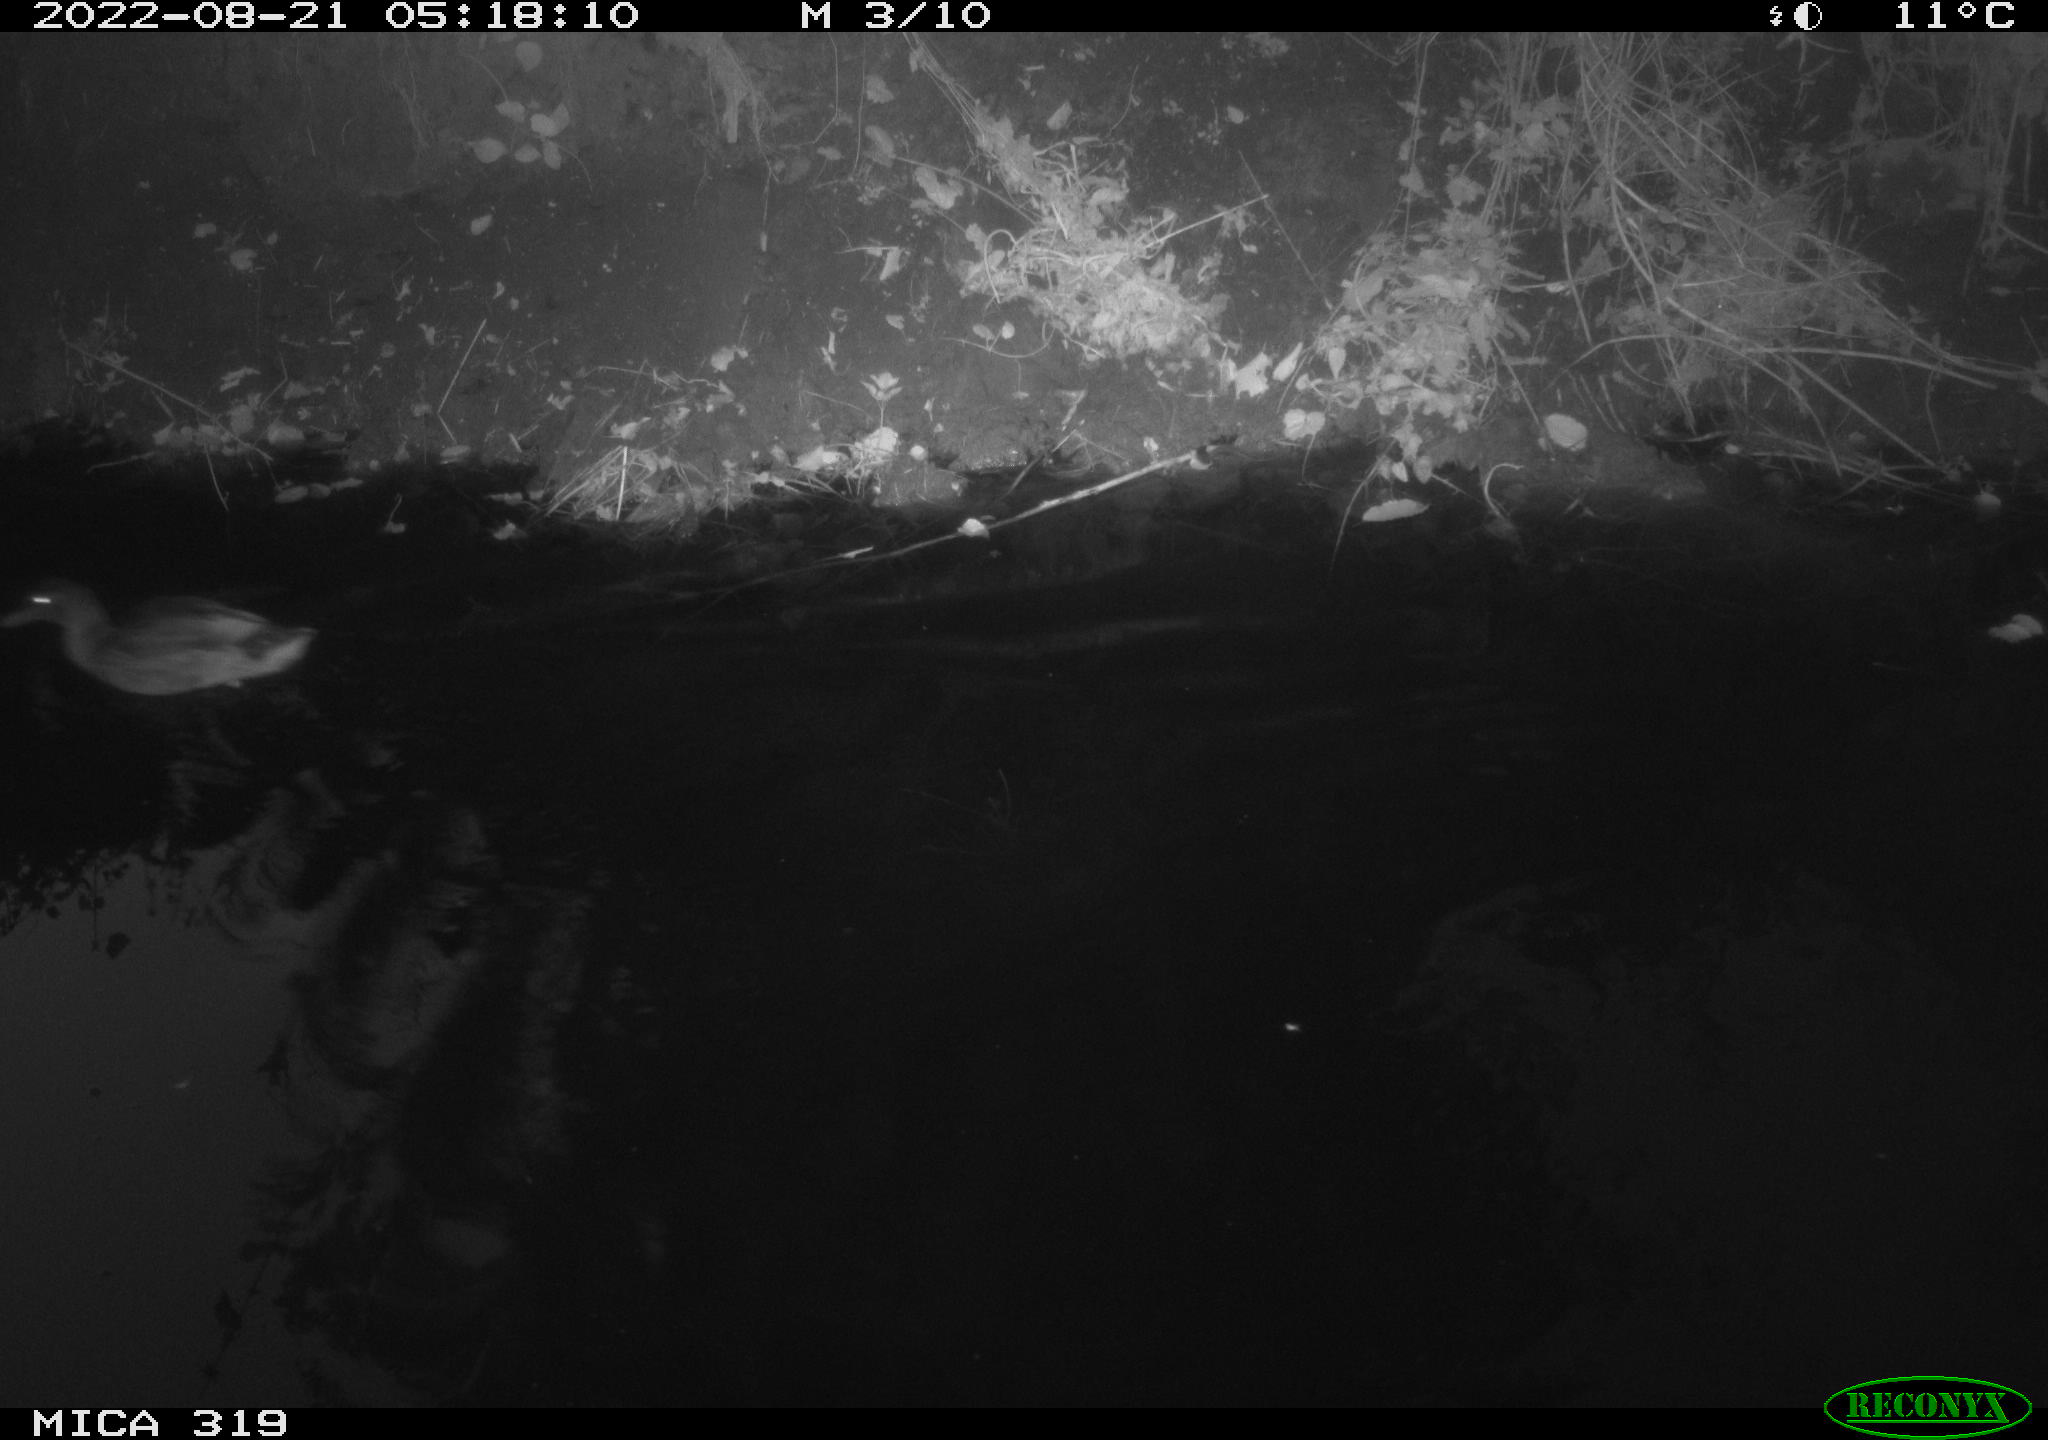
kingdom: Animalia
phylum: Chordata
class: Aves
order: Anseriformes
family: Anatidae
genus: Anas
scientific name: Anas
